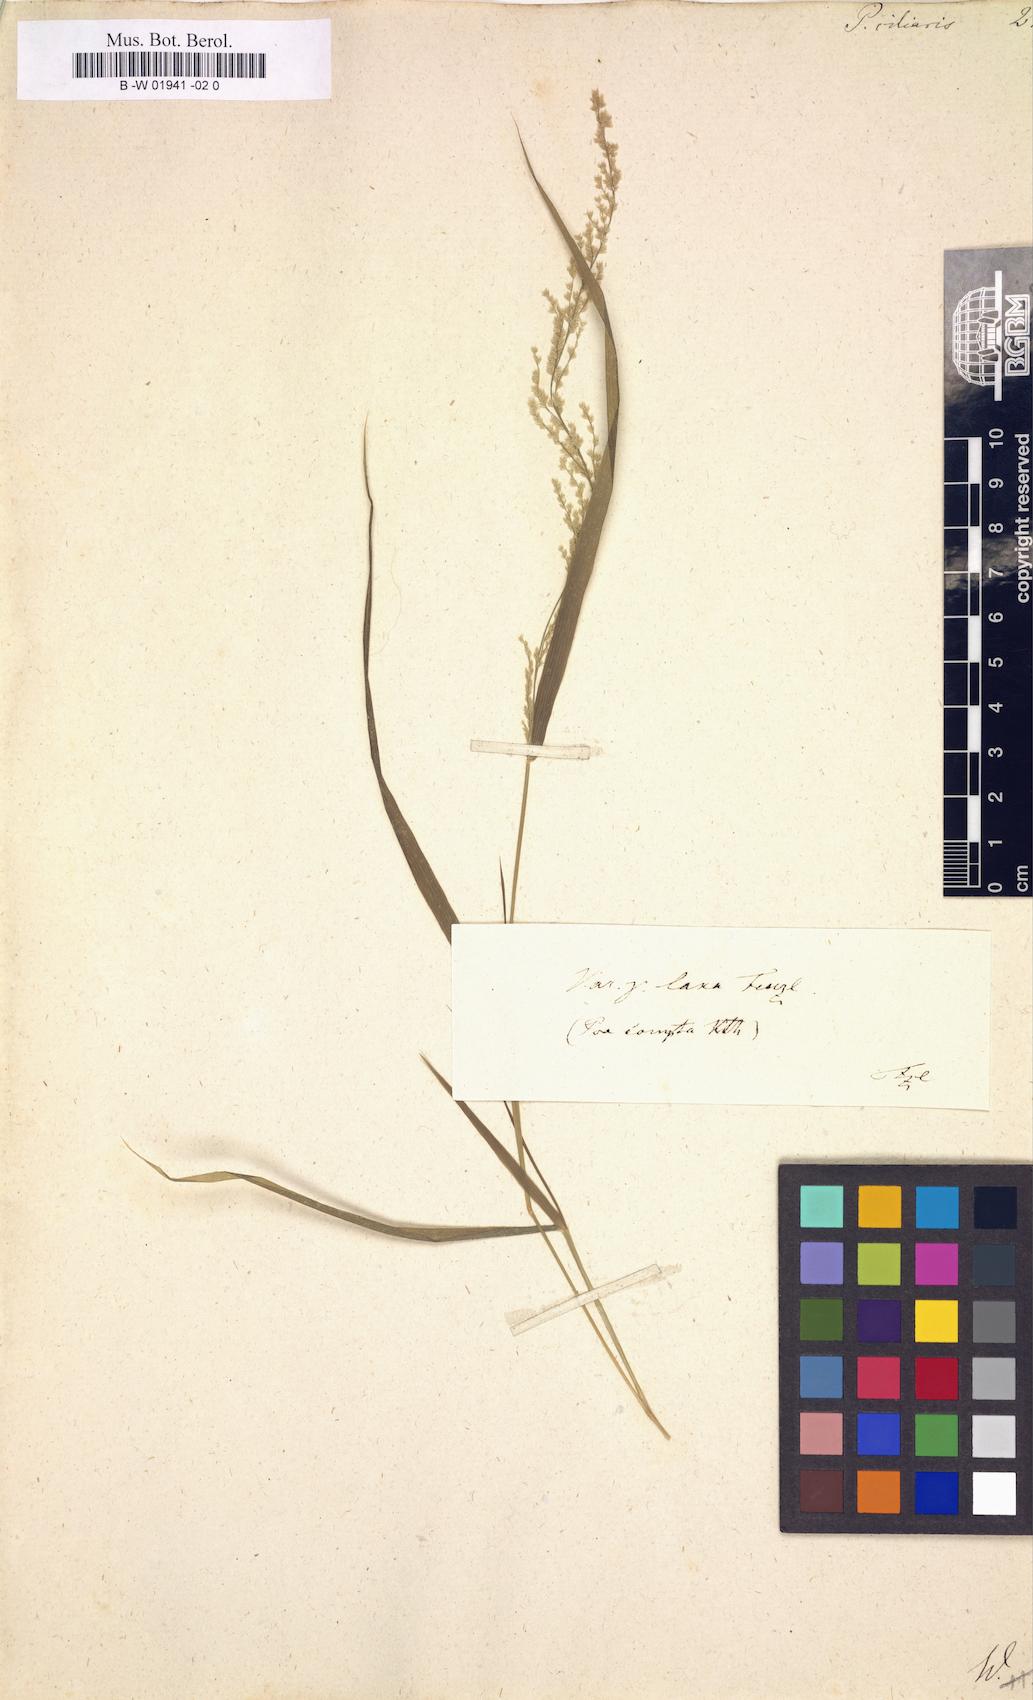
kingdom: Plantae
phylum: Tracheophyta
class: Liliopsida
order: Poales
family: Poaceae
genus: Eragrostis
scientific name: Eragrostis ciliaris
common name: Gophertail lovegrass
